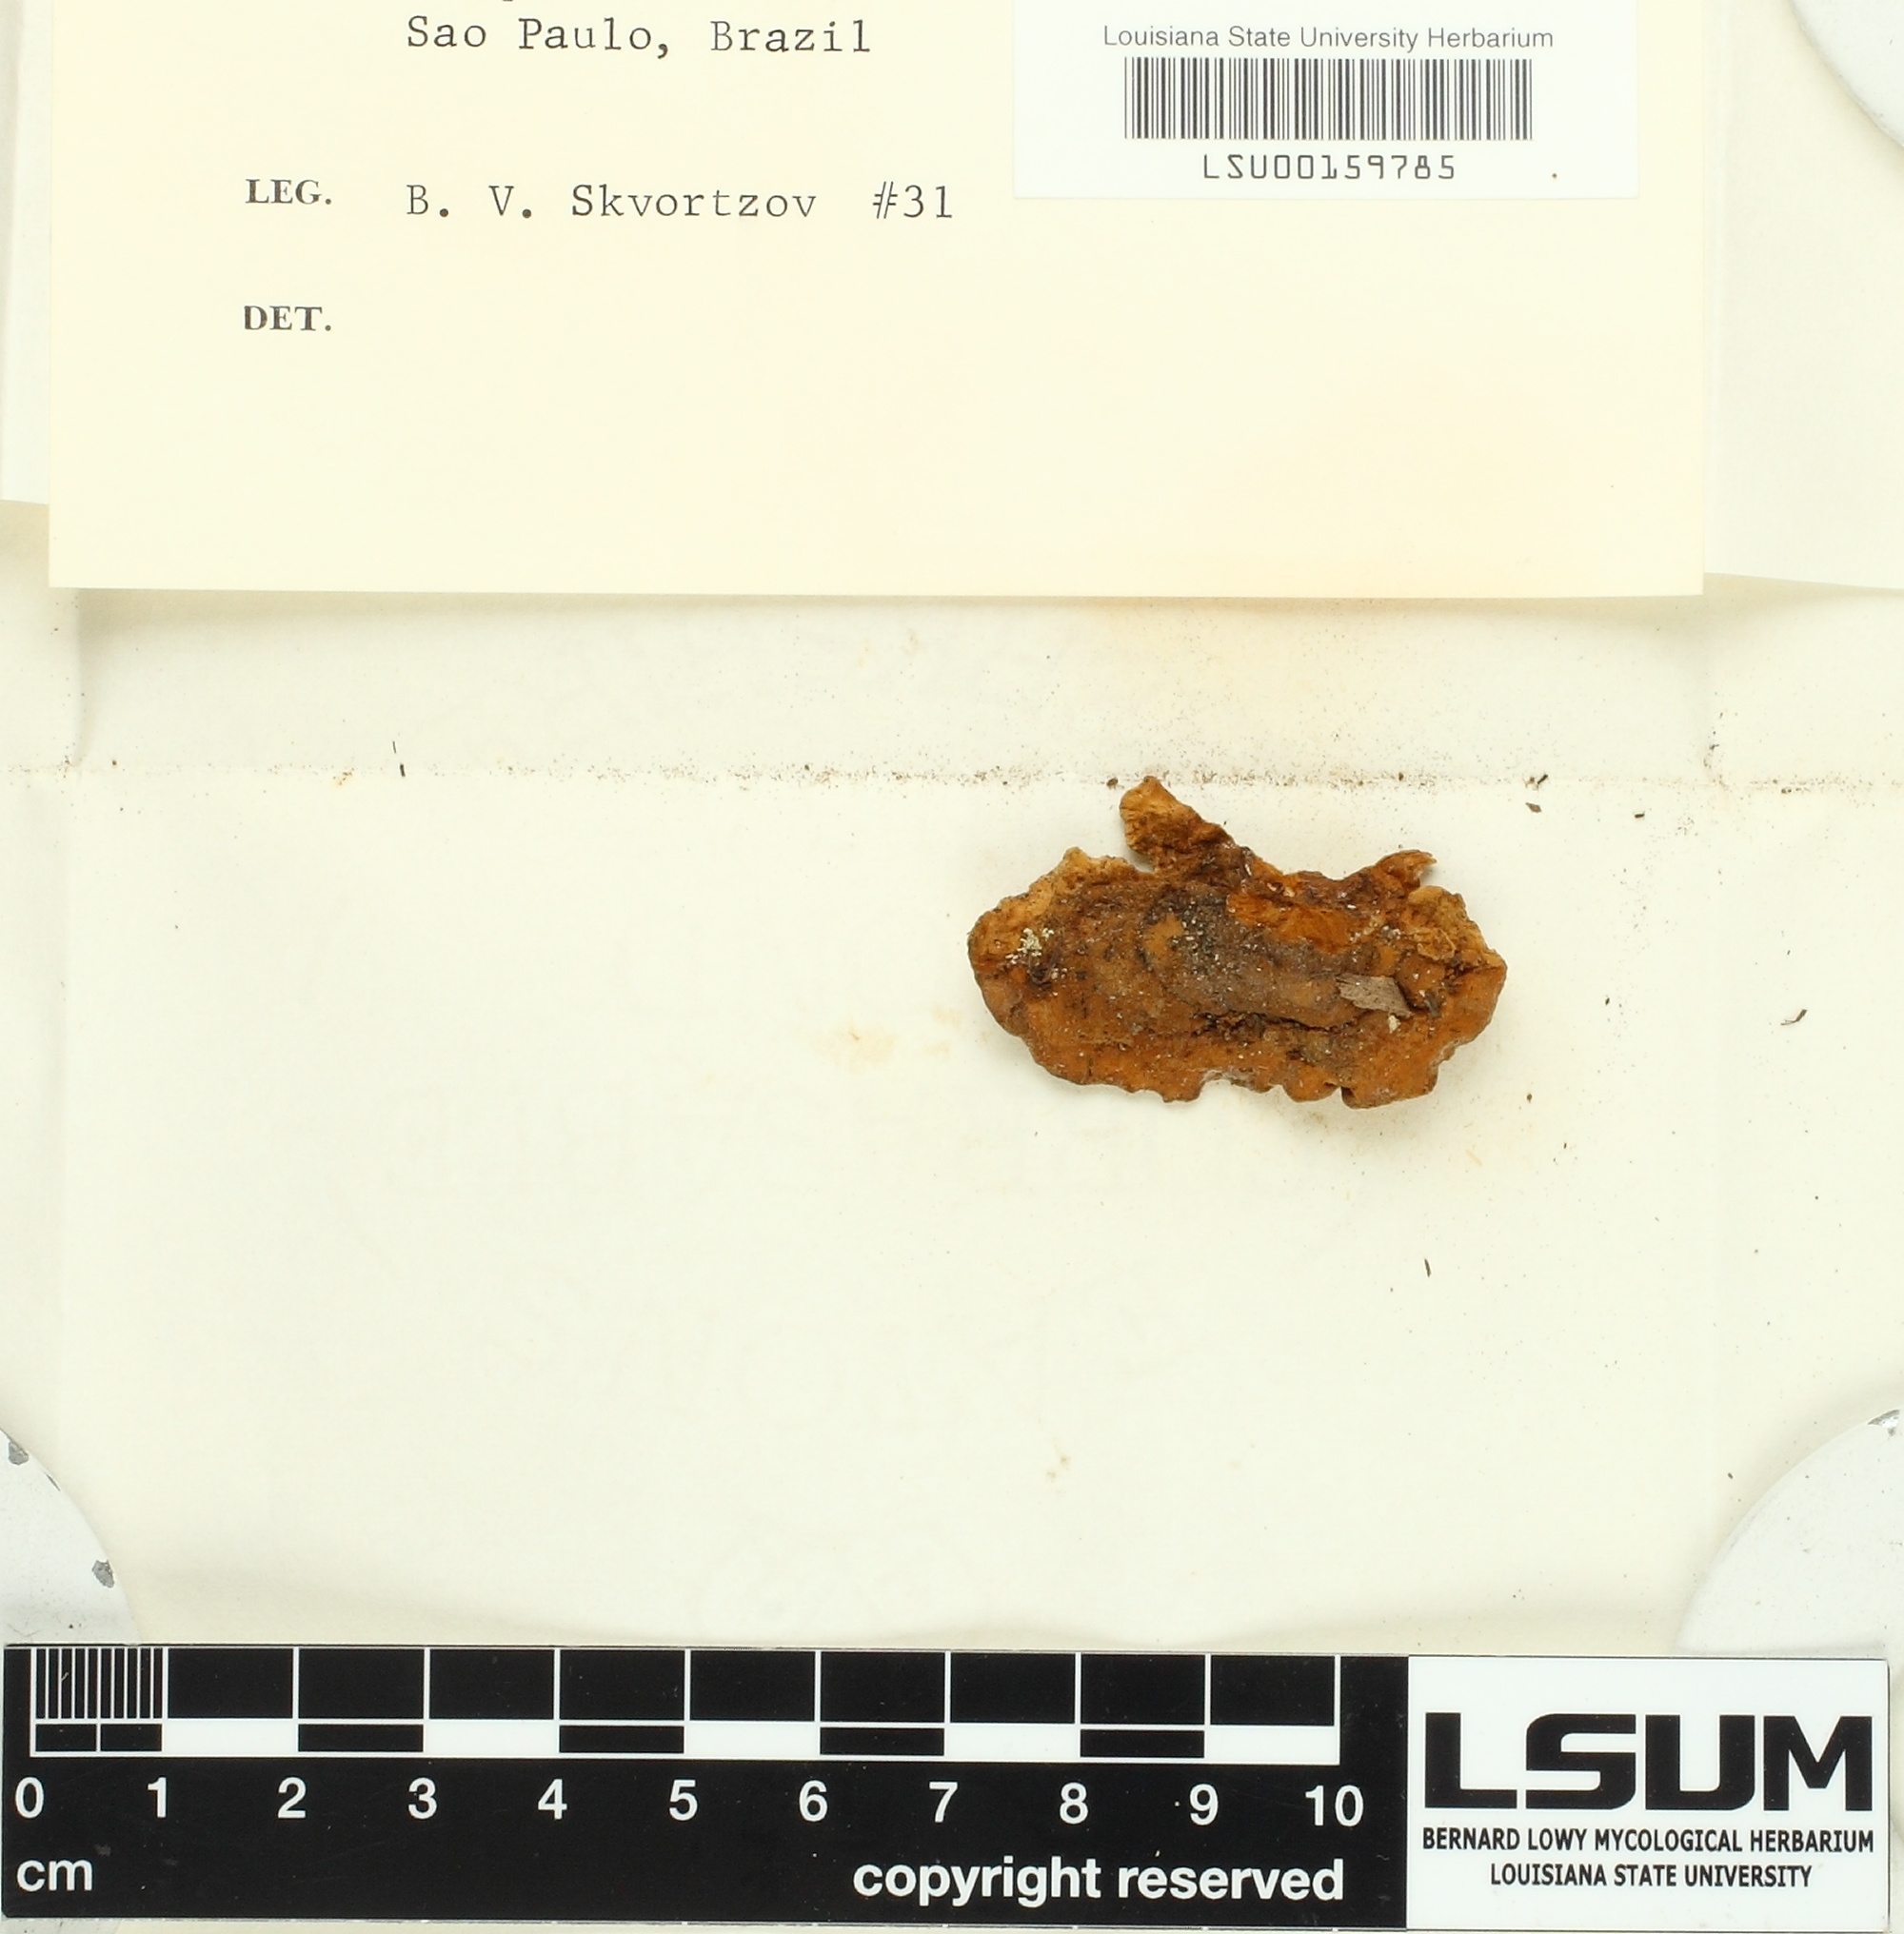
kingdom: Fungi
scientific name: Fungi
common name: Fungi
